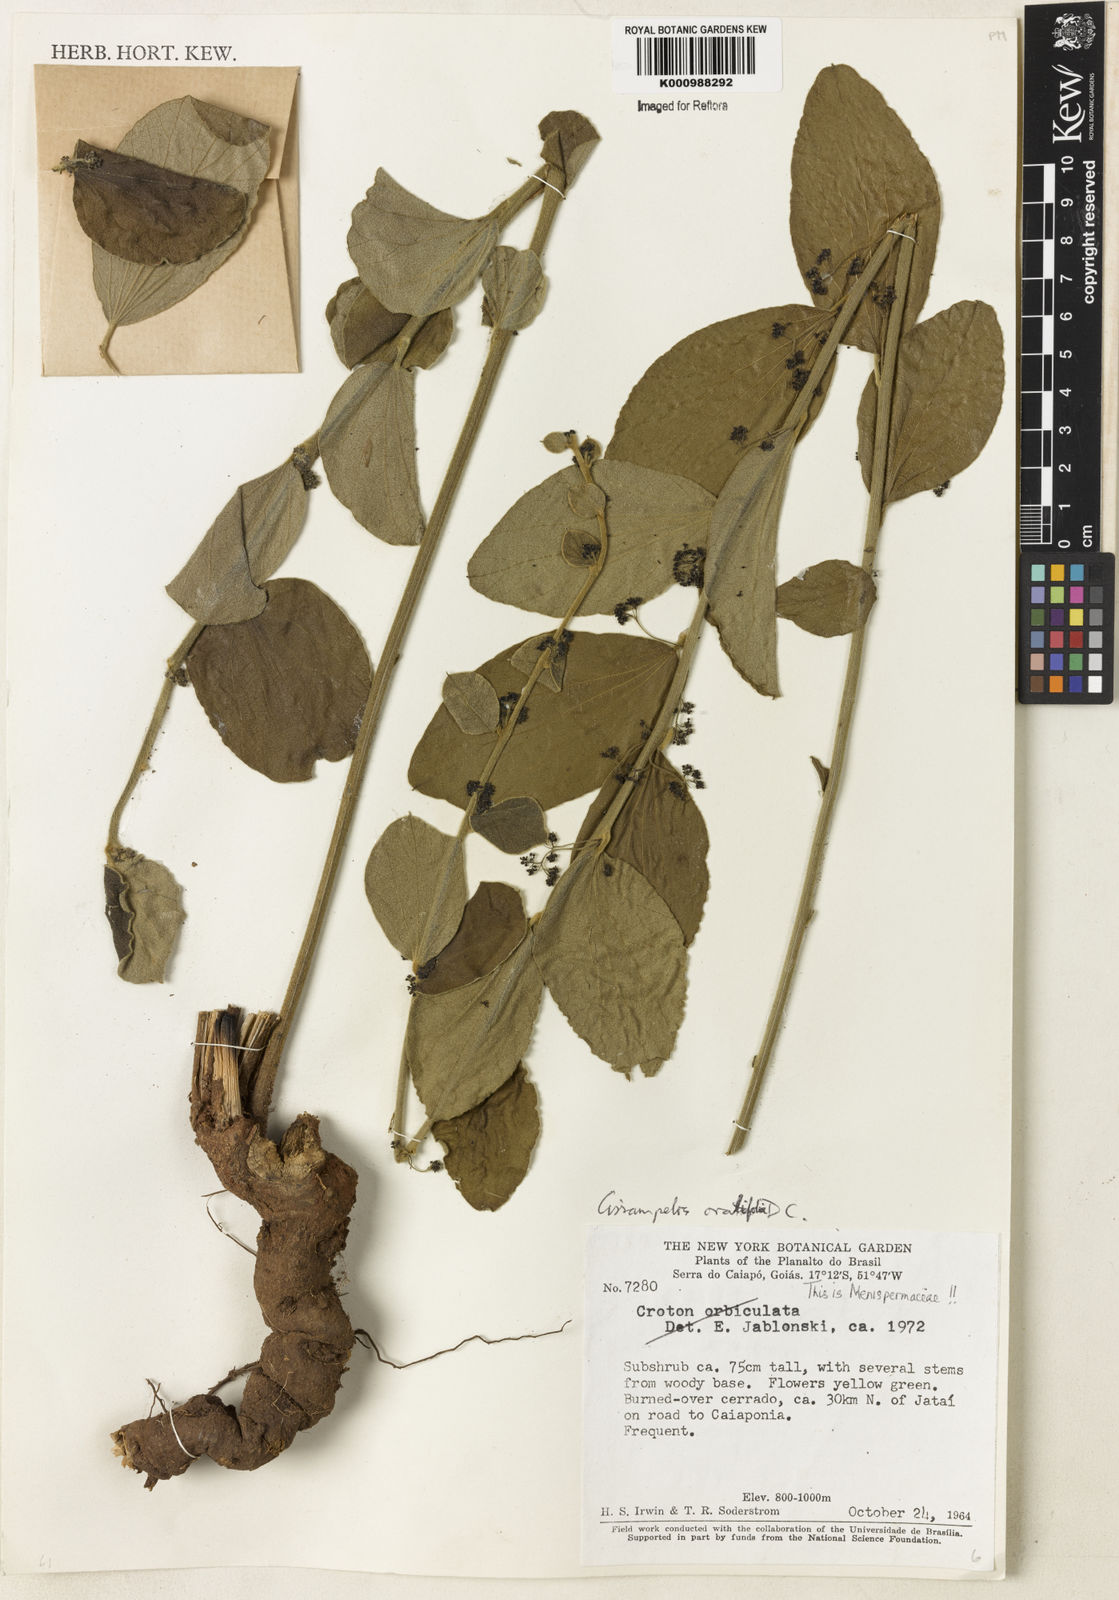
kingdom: Plantae
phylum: Tracheophyta
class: Magnoliopsida
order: Ranunculales
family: Menispermaceae
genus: Cissampelos
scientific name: Cissampelos ovalifolia
